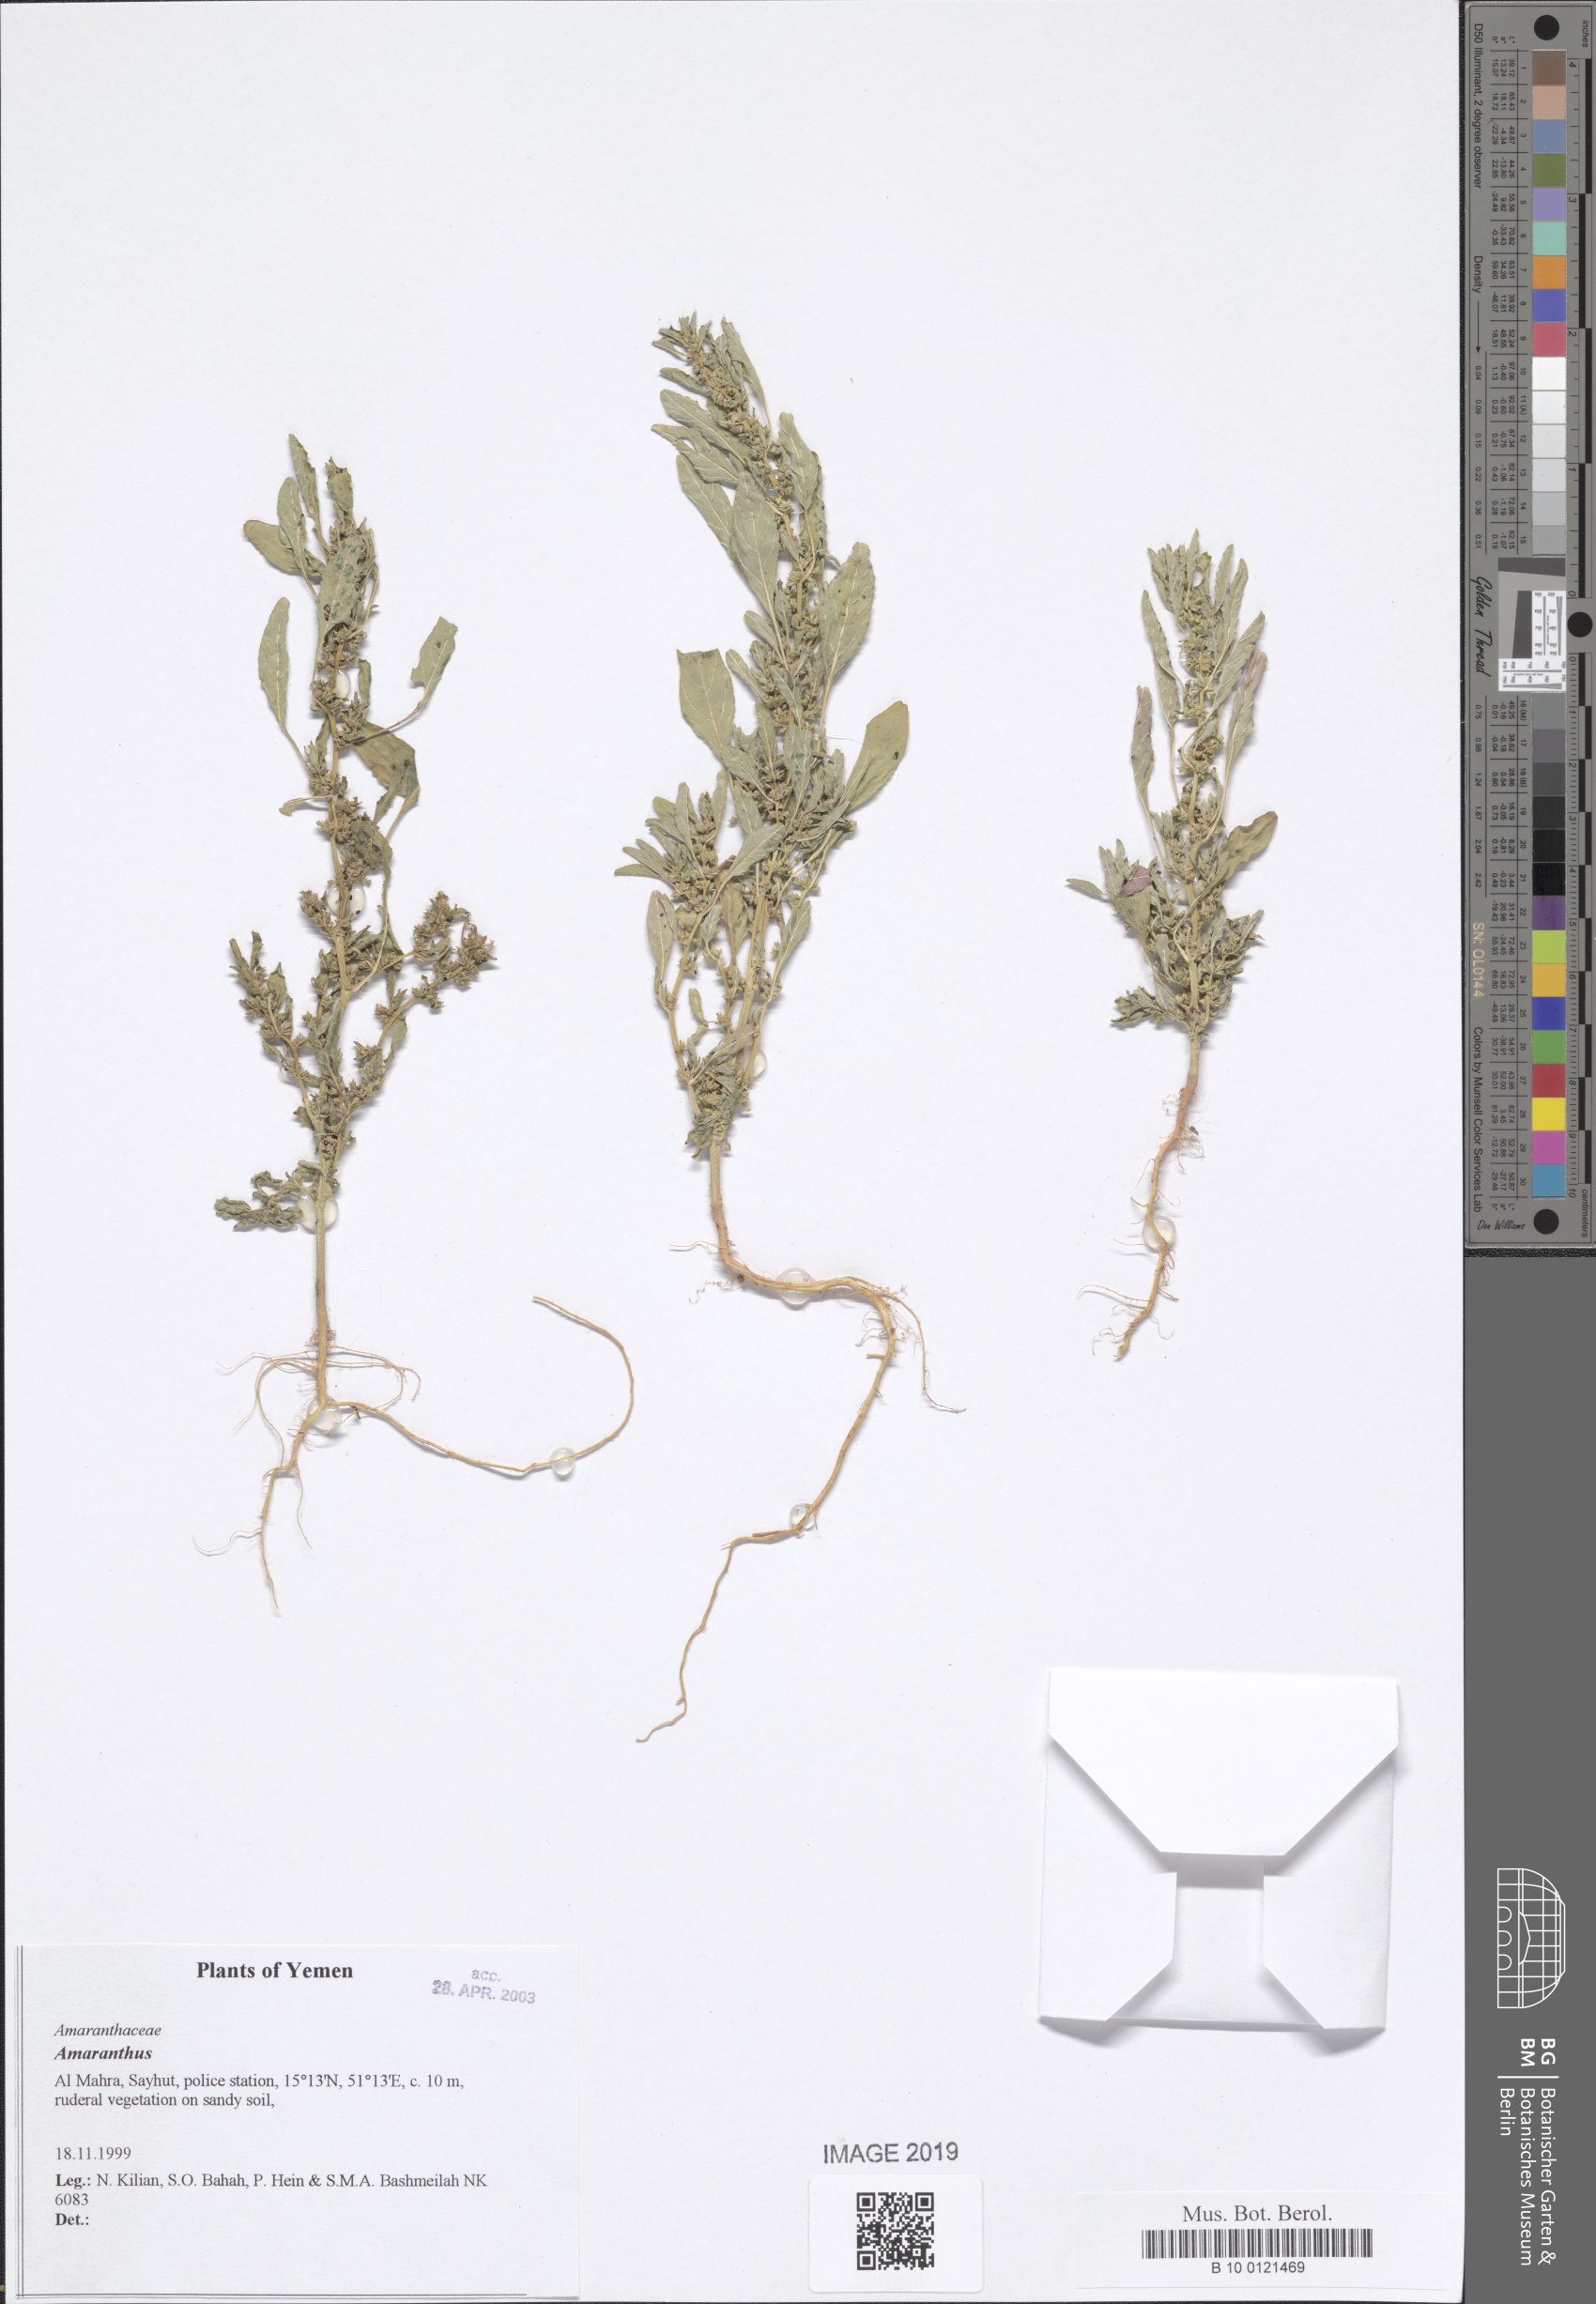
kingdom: Plantae
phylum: Tracheophyta
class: Magnoliopsida
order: Caryophyllales
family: Amaranthaceae
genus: Amaranthus
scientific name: Amaranthus
